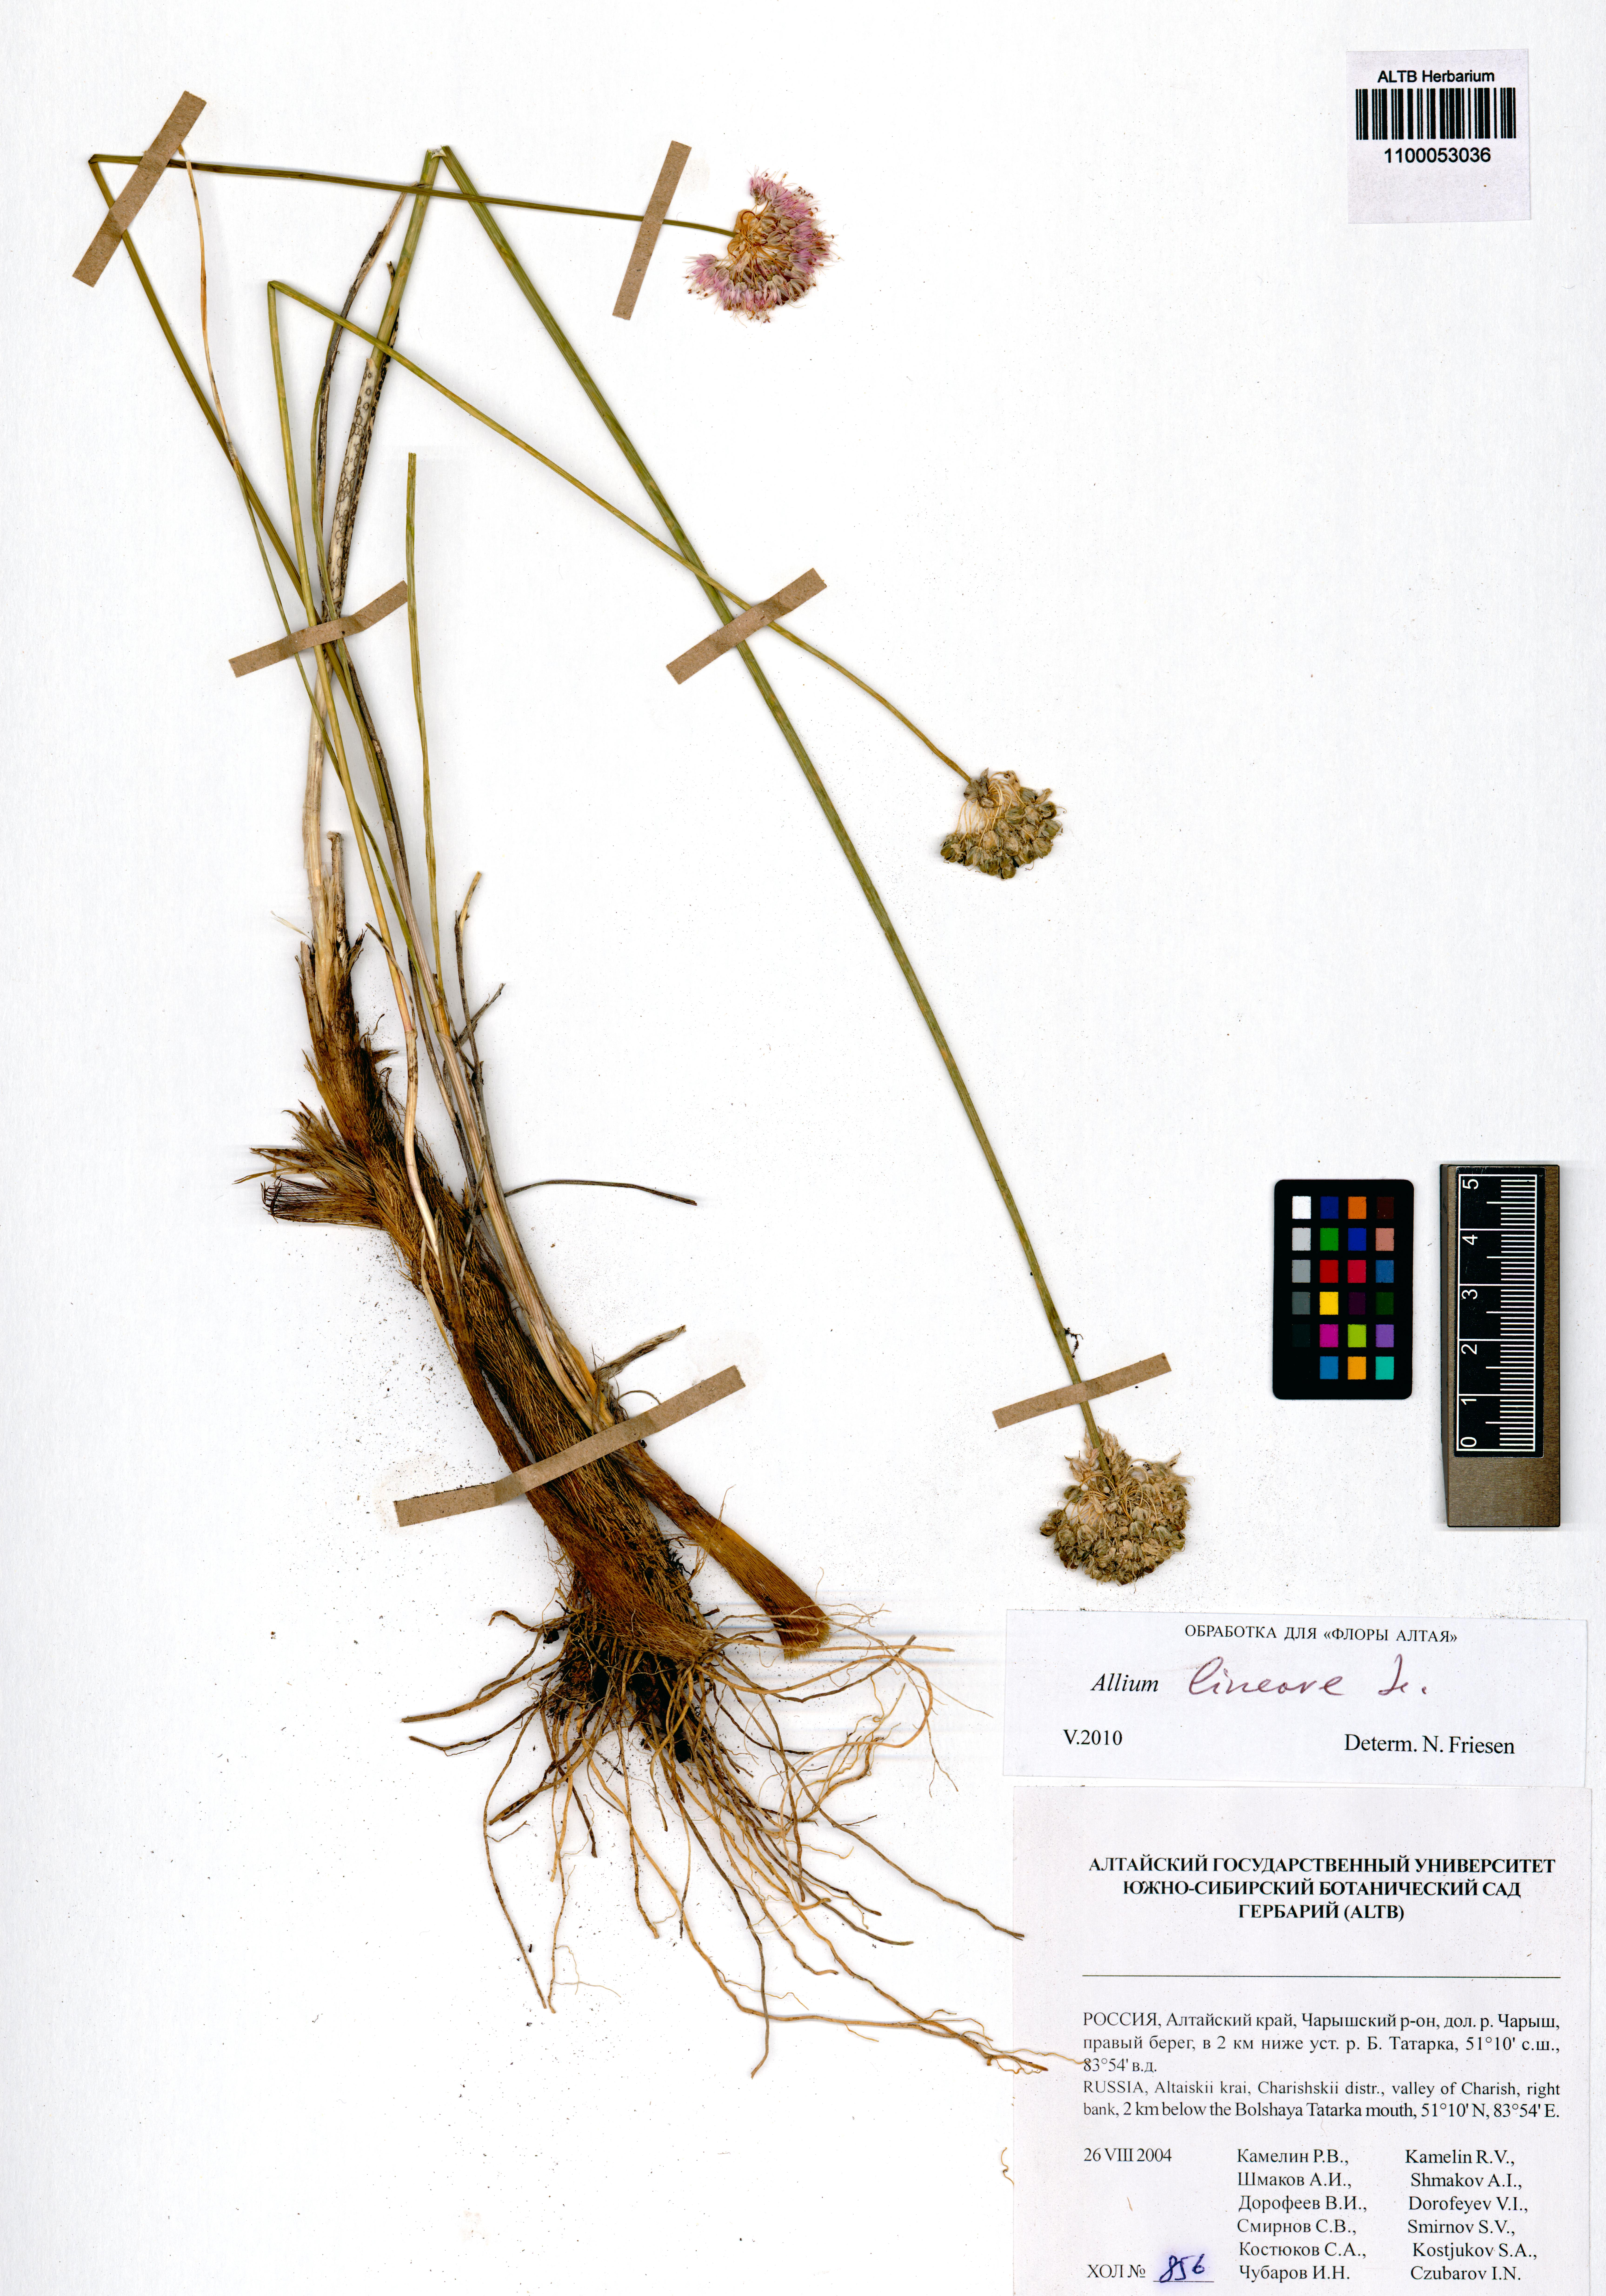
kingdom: Plantae
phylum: Tracheophyta
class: Liliopsida
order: Asparagales
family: Amaryllidaceae
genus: Allium
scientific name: Allium lineare
